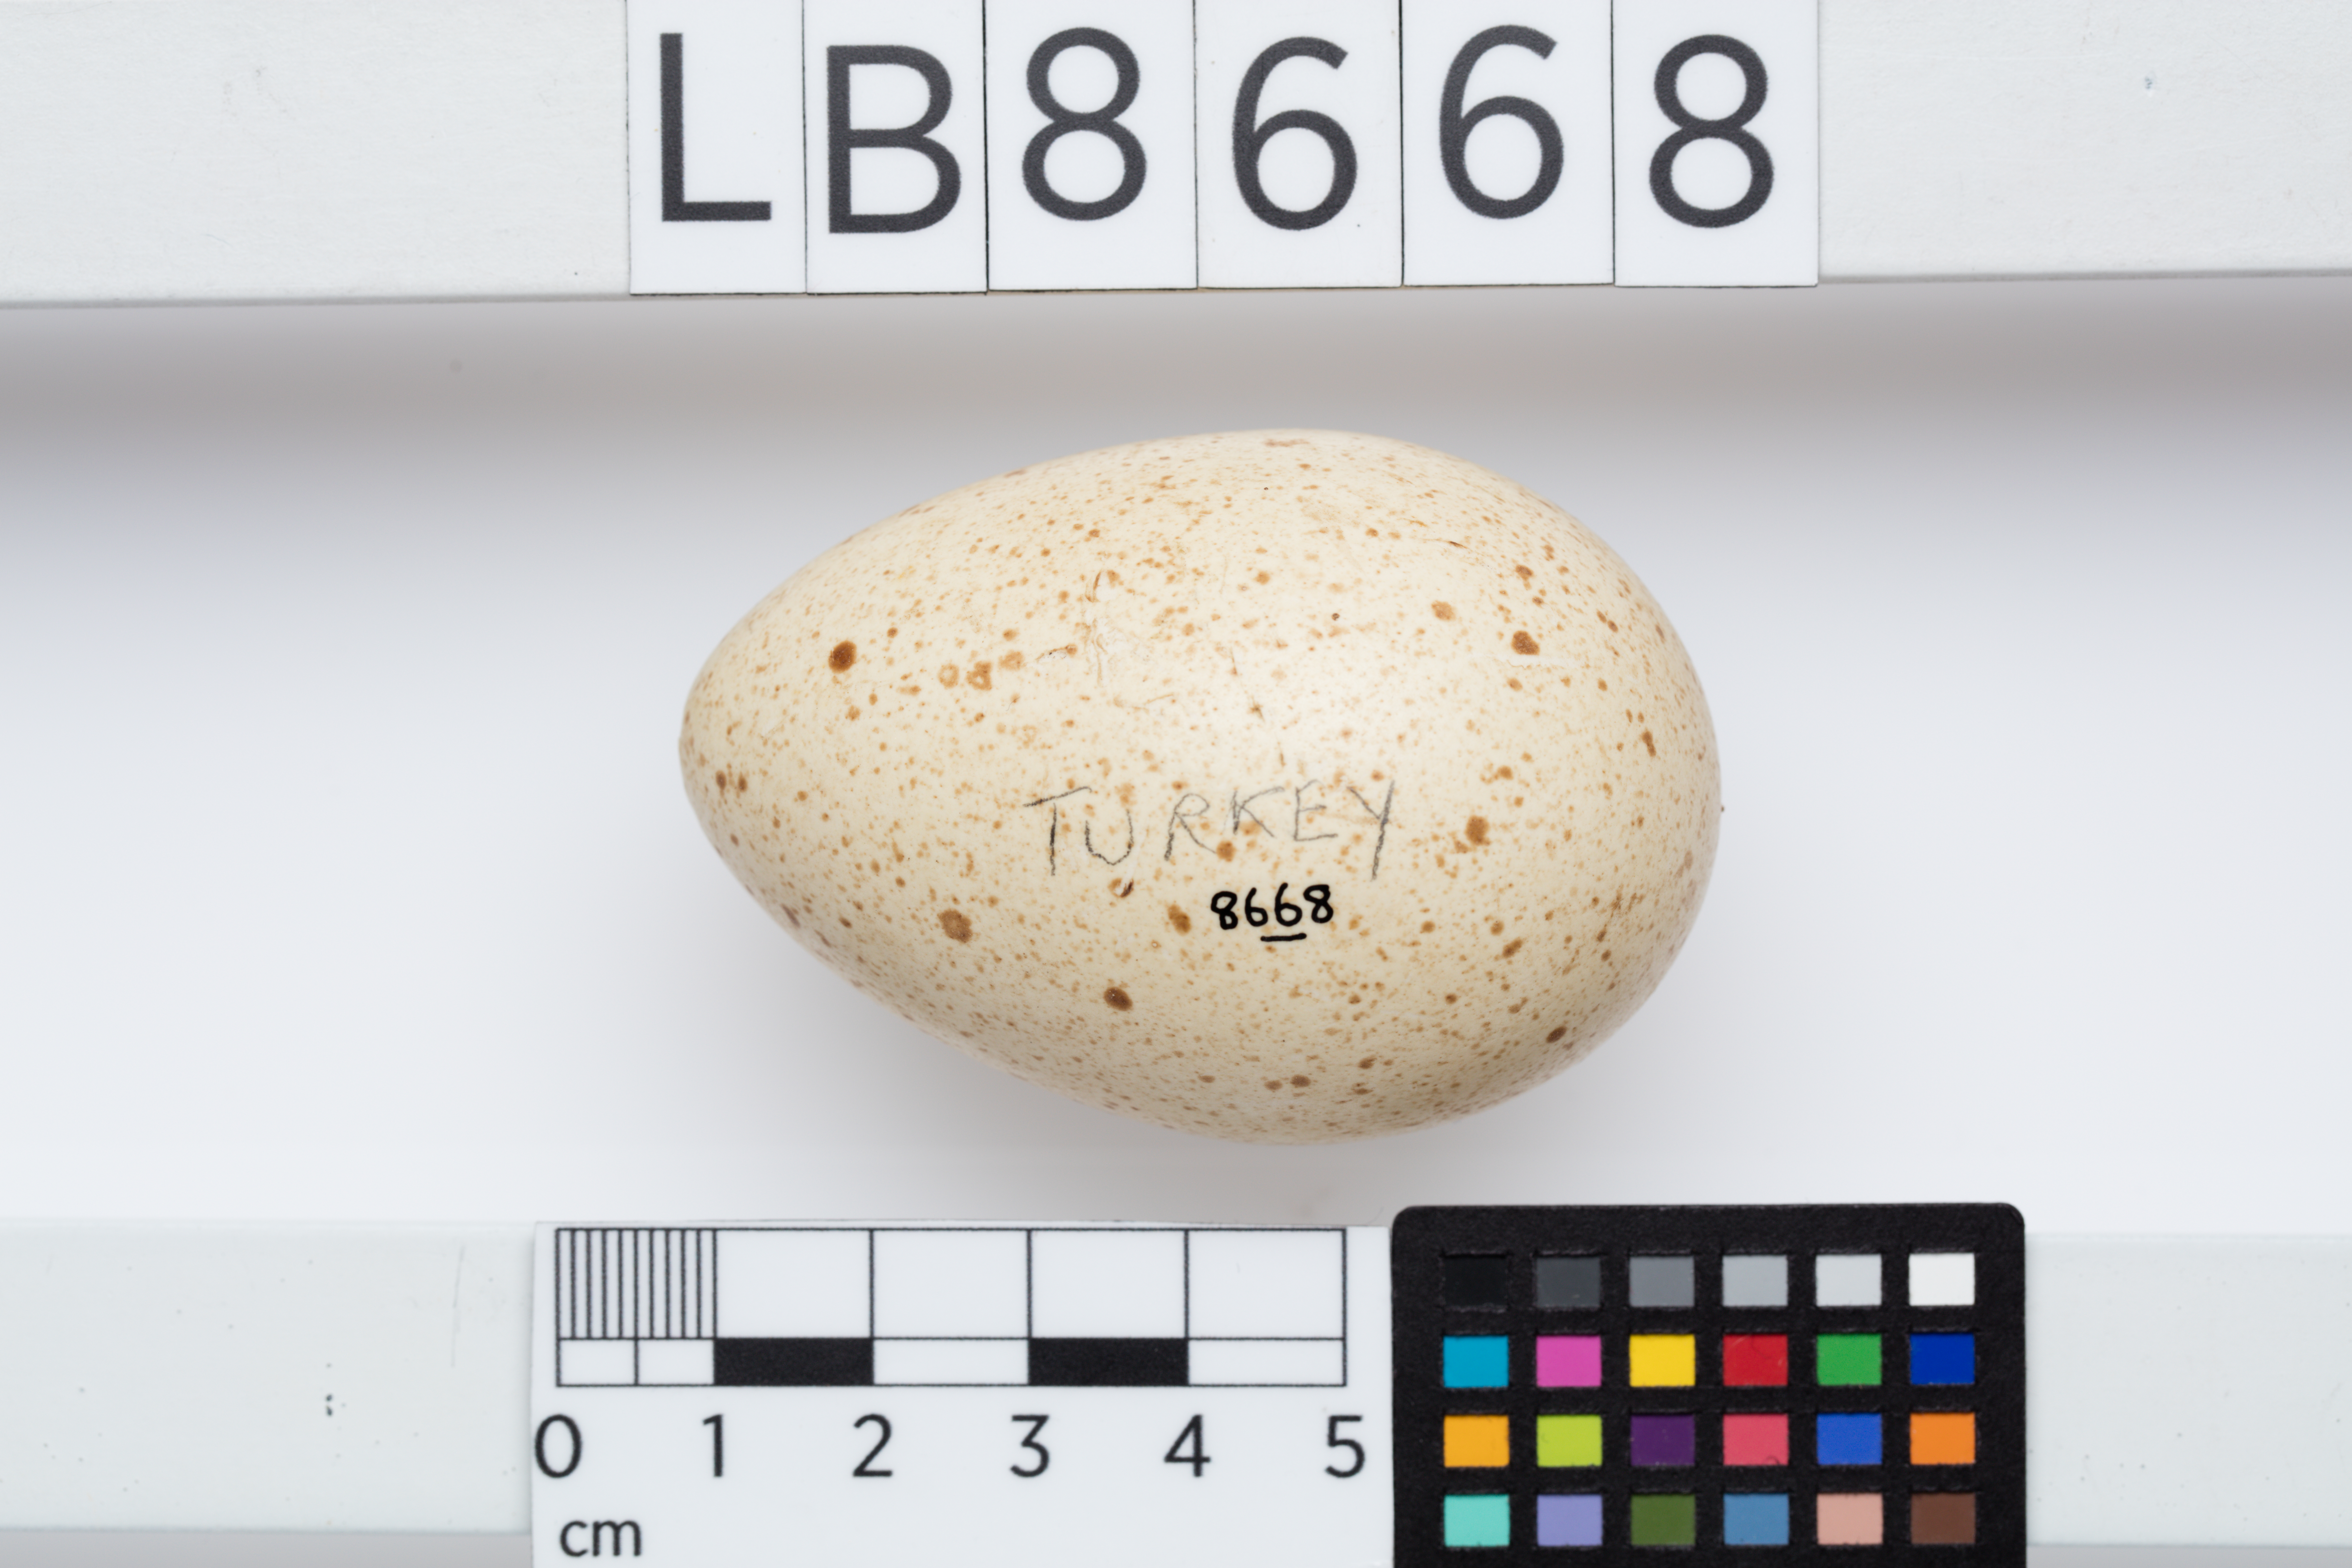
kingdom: Animalia
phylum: Chordata
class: Aves
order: Galliformes
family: Phasianidae
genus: Meleagris
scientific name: Meleagris gallopavo
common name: Wild turkey
